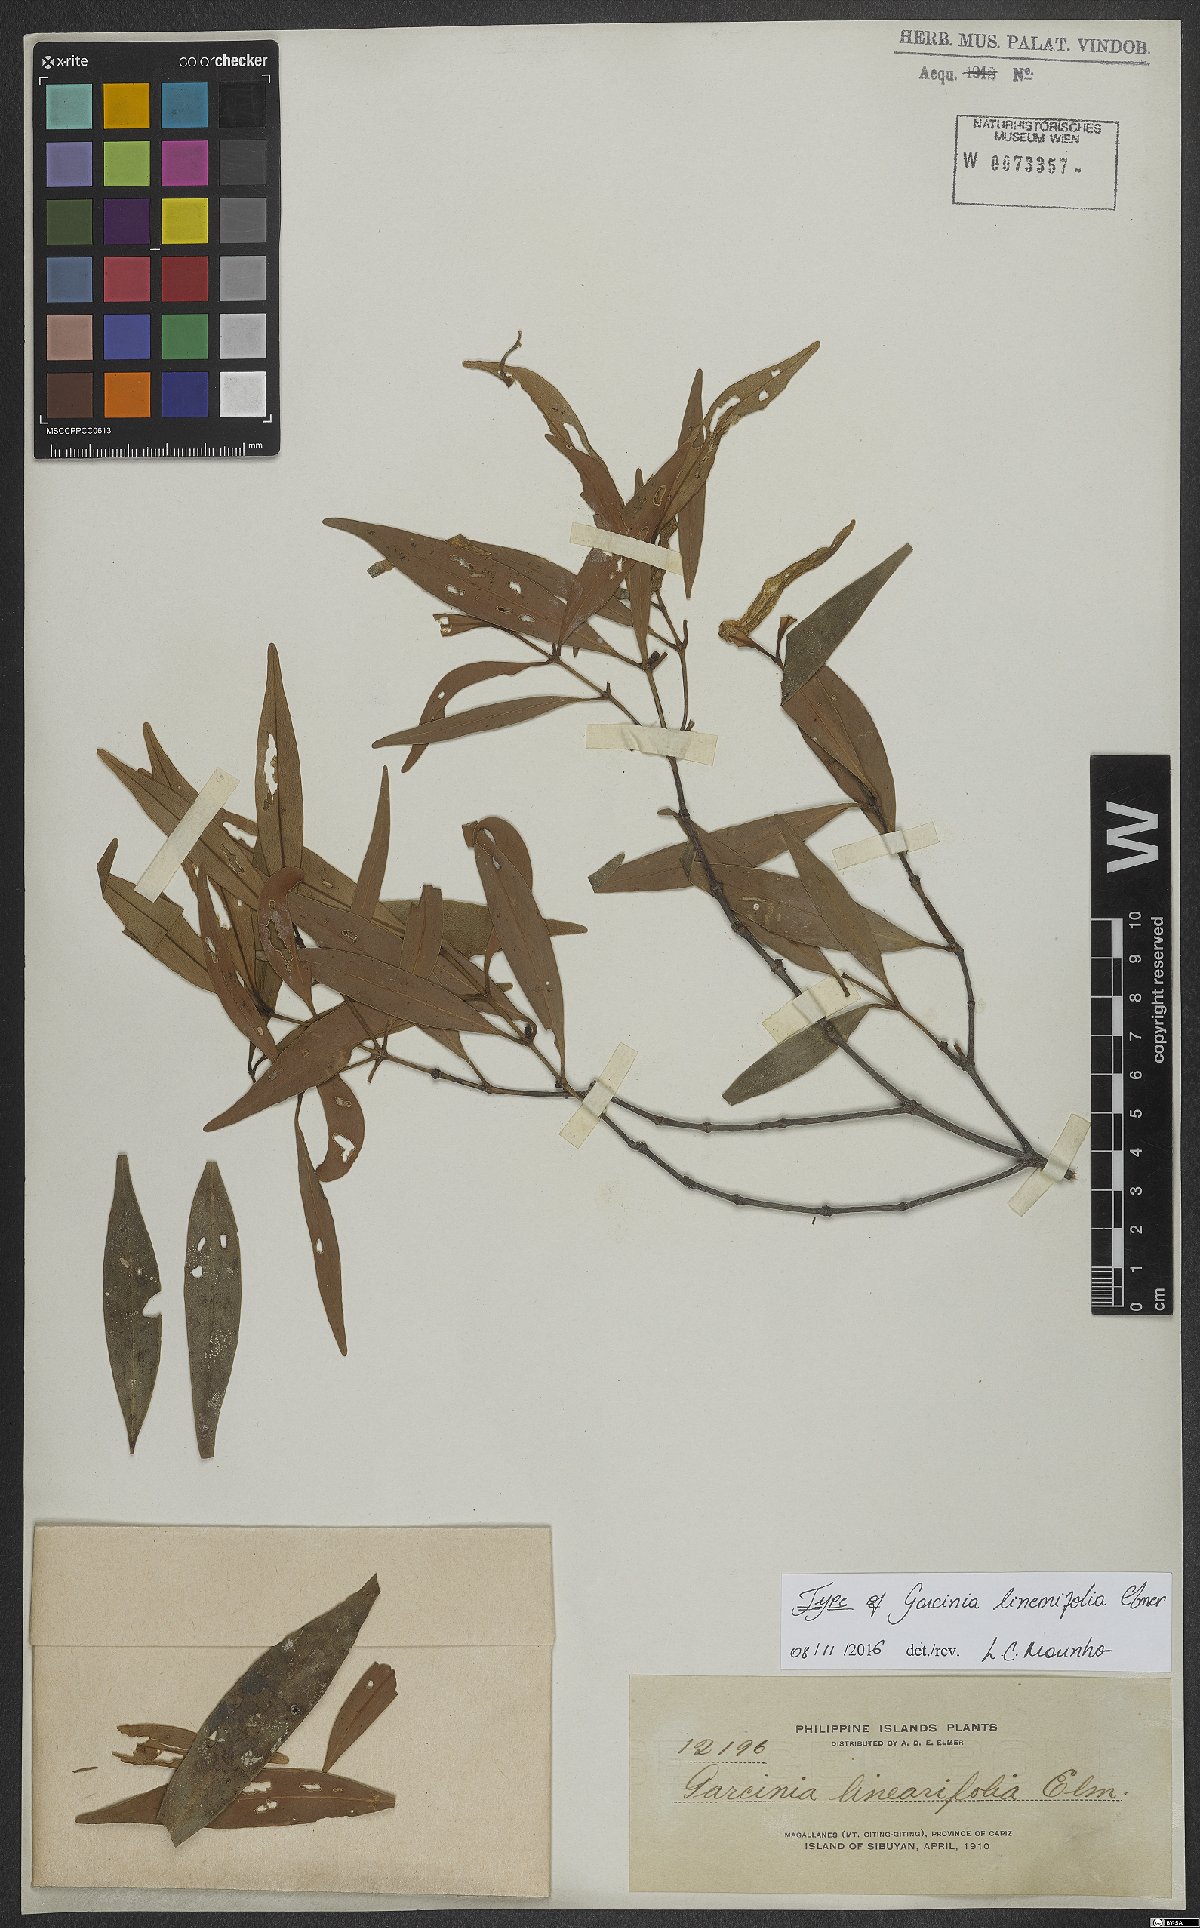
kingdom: Plantae
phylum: Tracheophyta
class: Magnoliopsida
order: Malpighiales
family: Clusiaceae
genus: Garcinia
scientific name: Garcinia linearifolia
